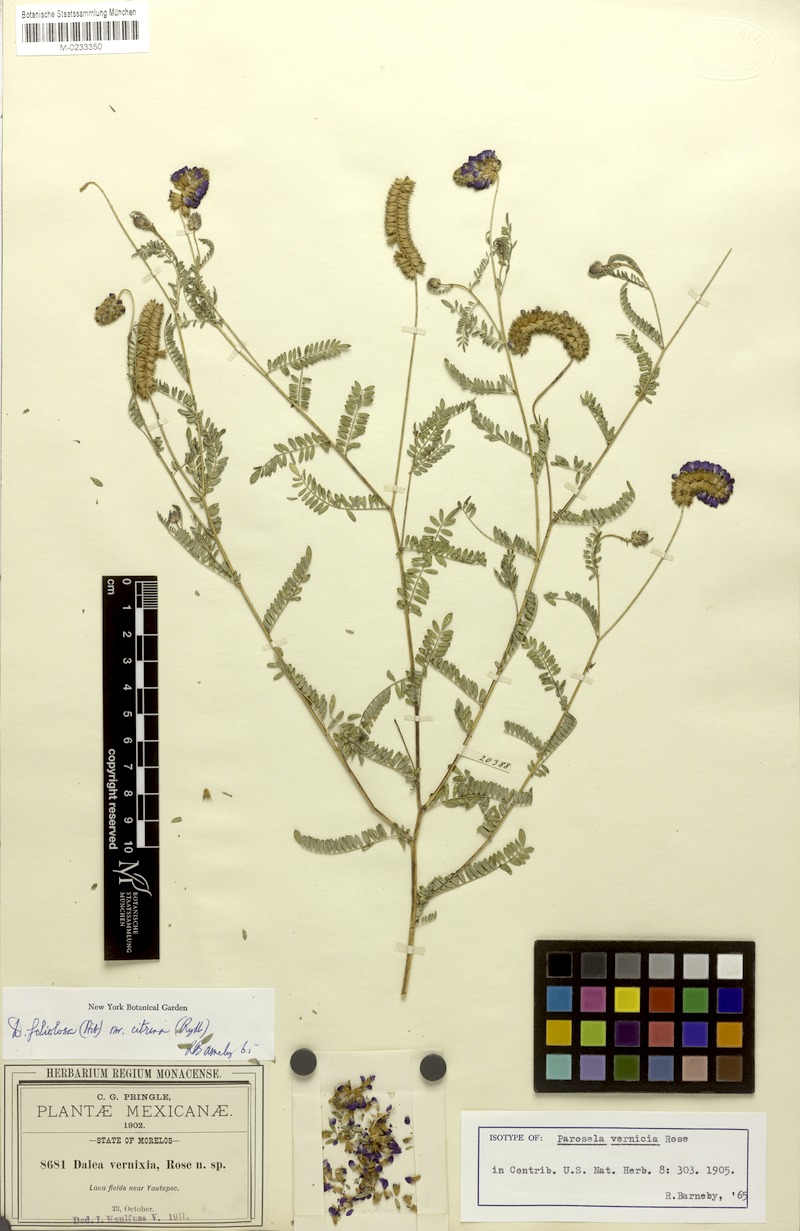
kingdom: Plantae
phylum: Tracheophyta
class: Magnoliopsida
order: Fabales
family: Fabaceae
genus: Dalea
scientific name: Dalea foliolosa
